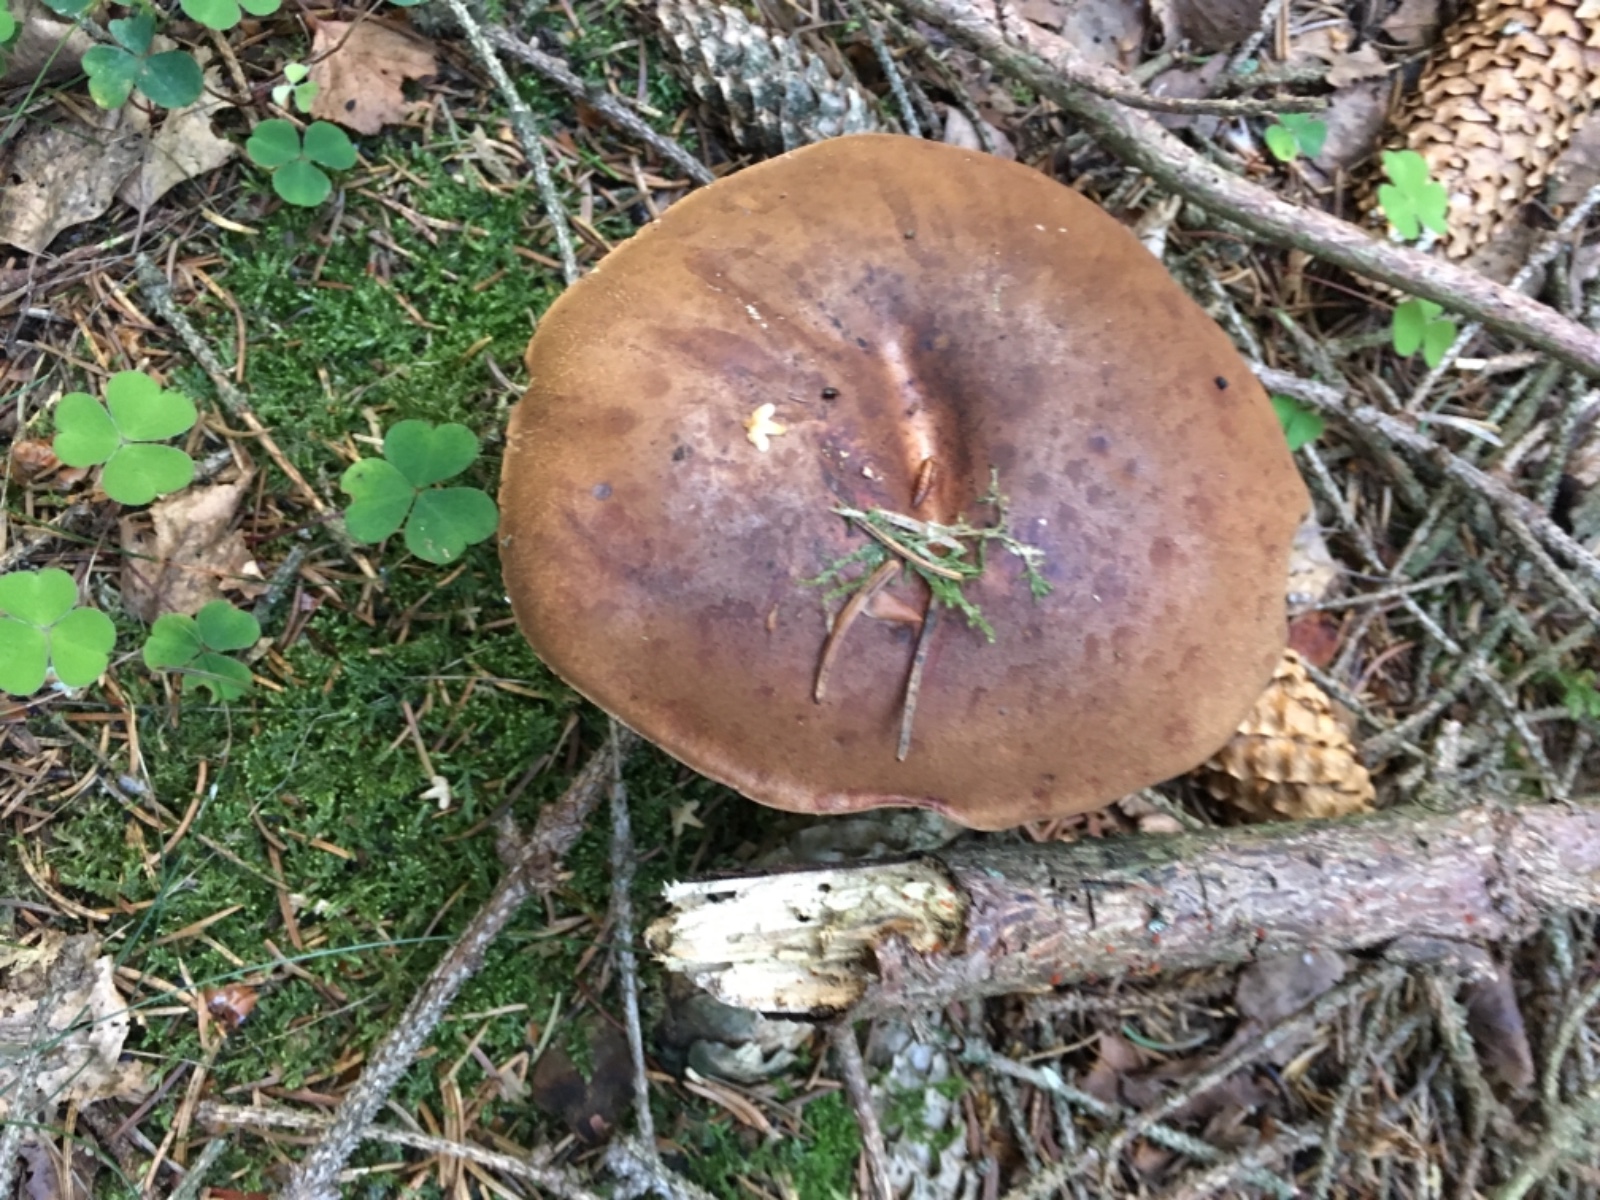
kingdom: Fungi
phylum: Basidiomycota
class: Agaricomycetes
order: Boletales
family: Boletaceae
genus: Imleria
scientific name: Imleria badia
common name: brunstokket rørhat
